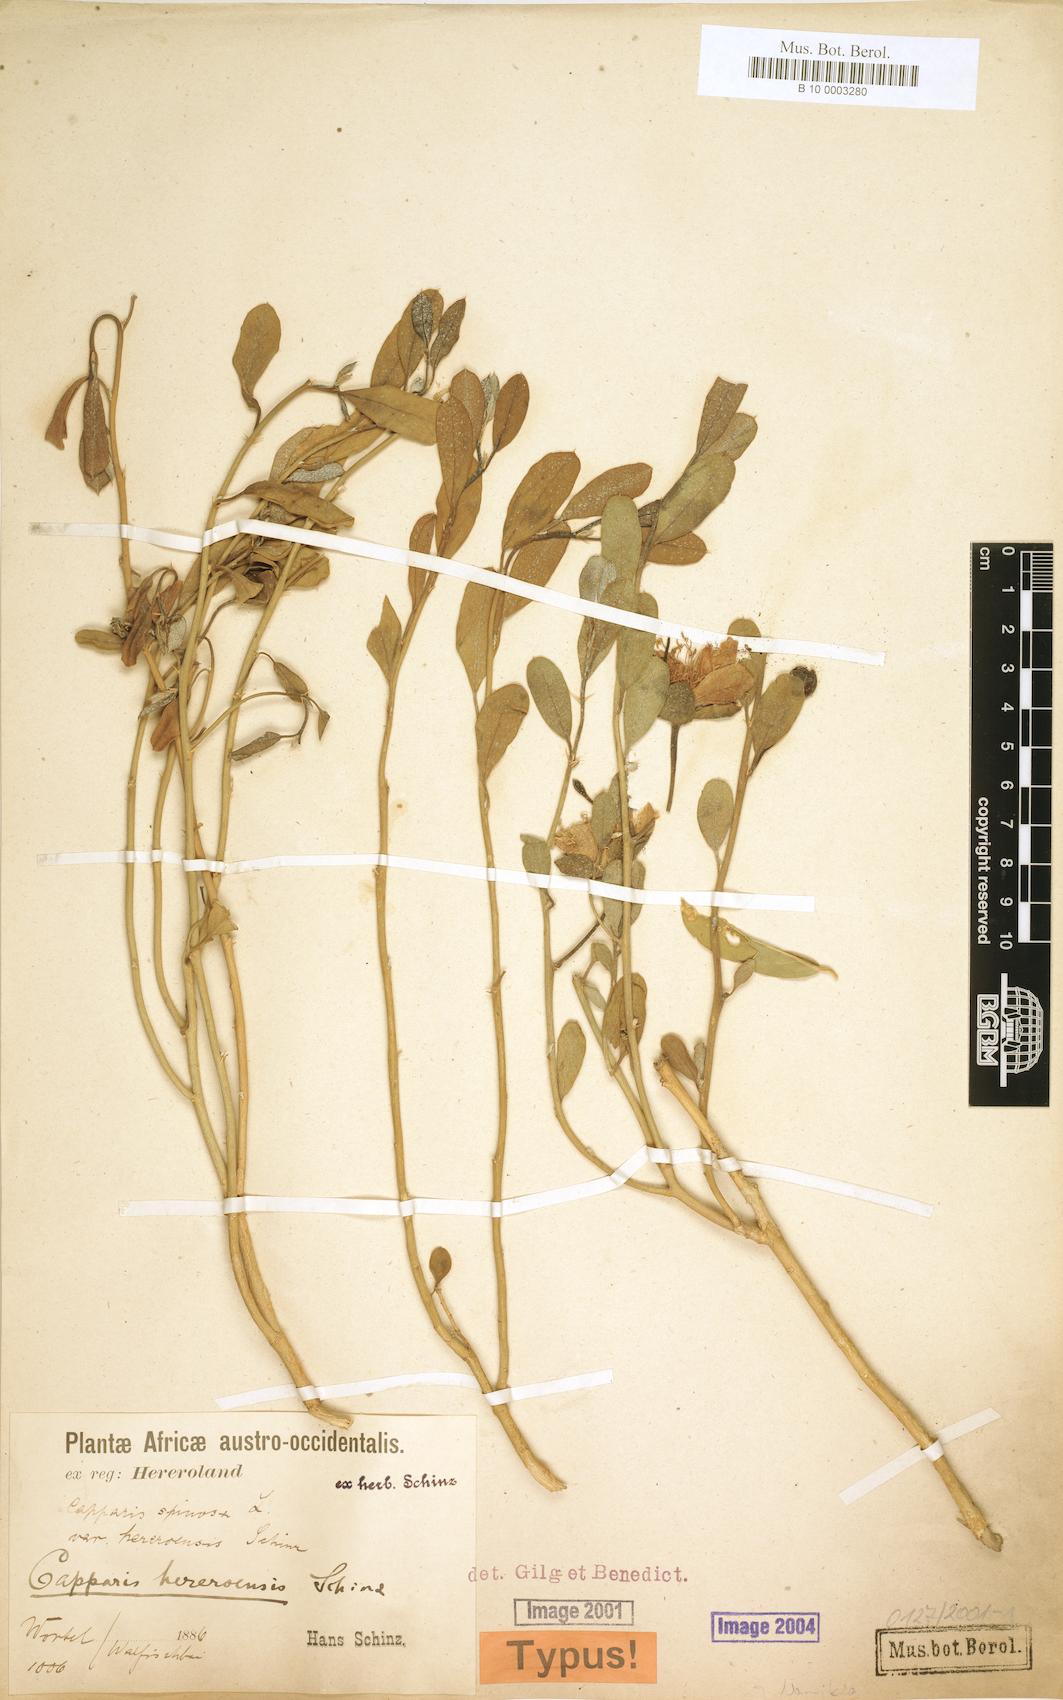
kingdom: Plantae
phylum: Tracheophyta
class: Magnoliopsida
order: Brassicales
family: Capparaceae
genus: Capparis
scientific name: Capparis hereroensis
